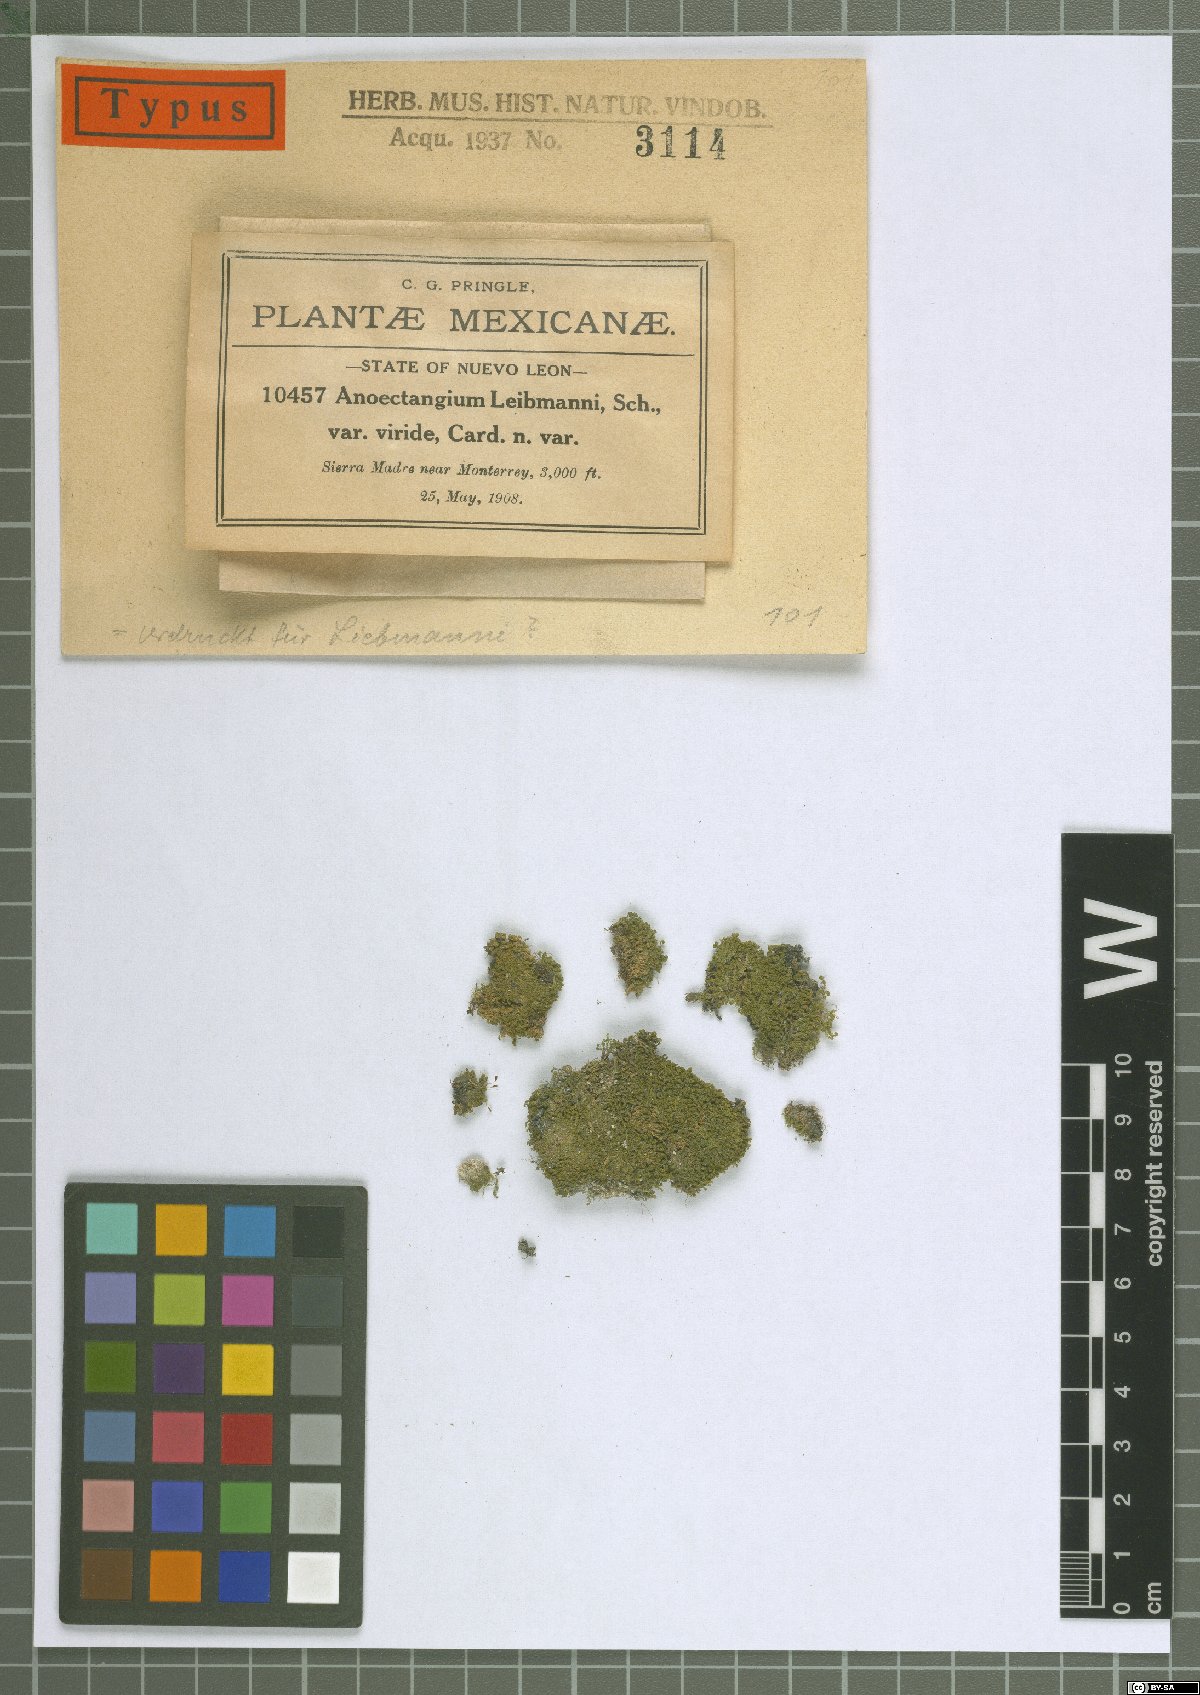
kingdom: Plantae
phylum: Bryophyta
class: Bryopsida
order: Pottiales
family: Pottiaceae
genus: Molendoa
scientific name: Molendoa sendtneriana
